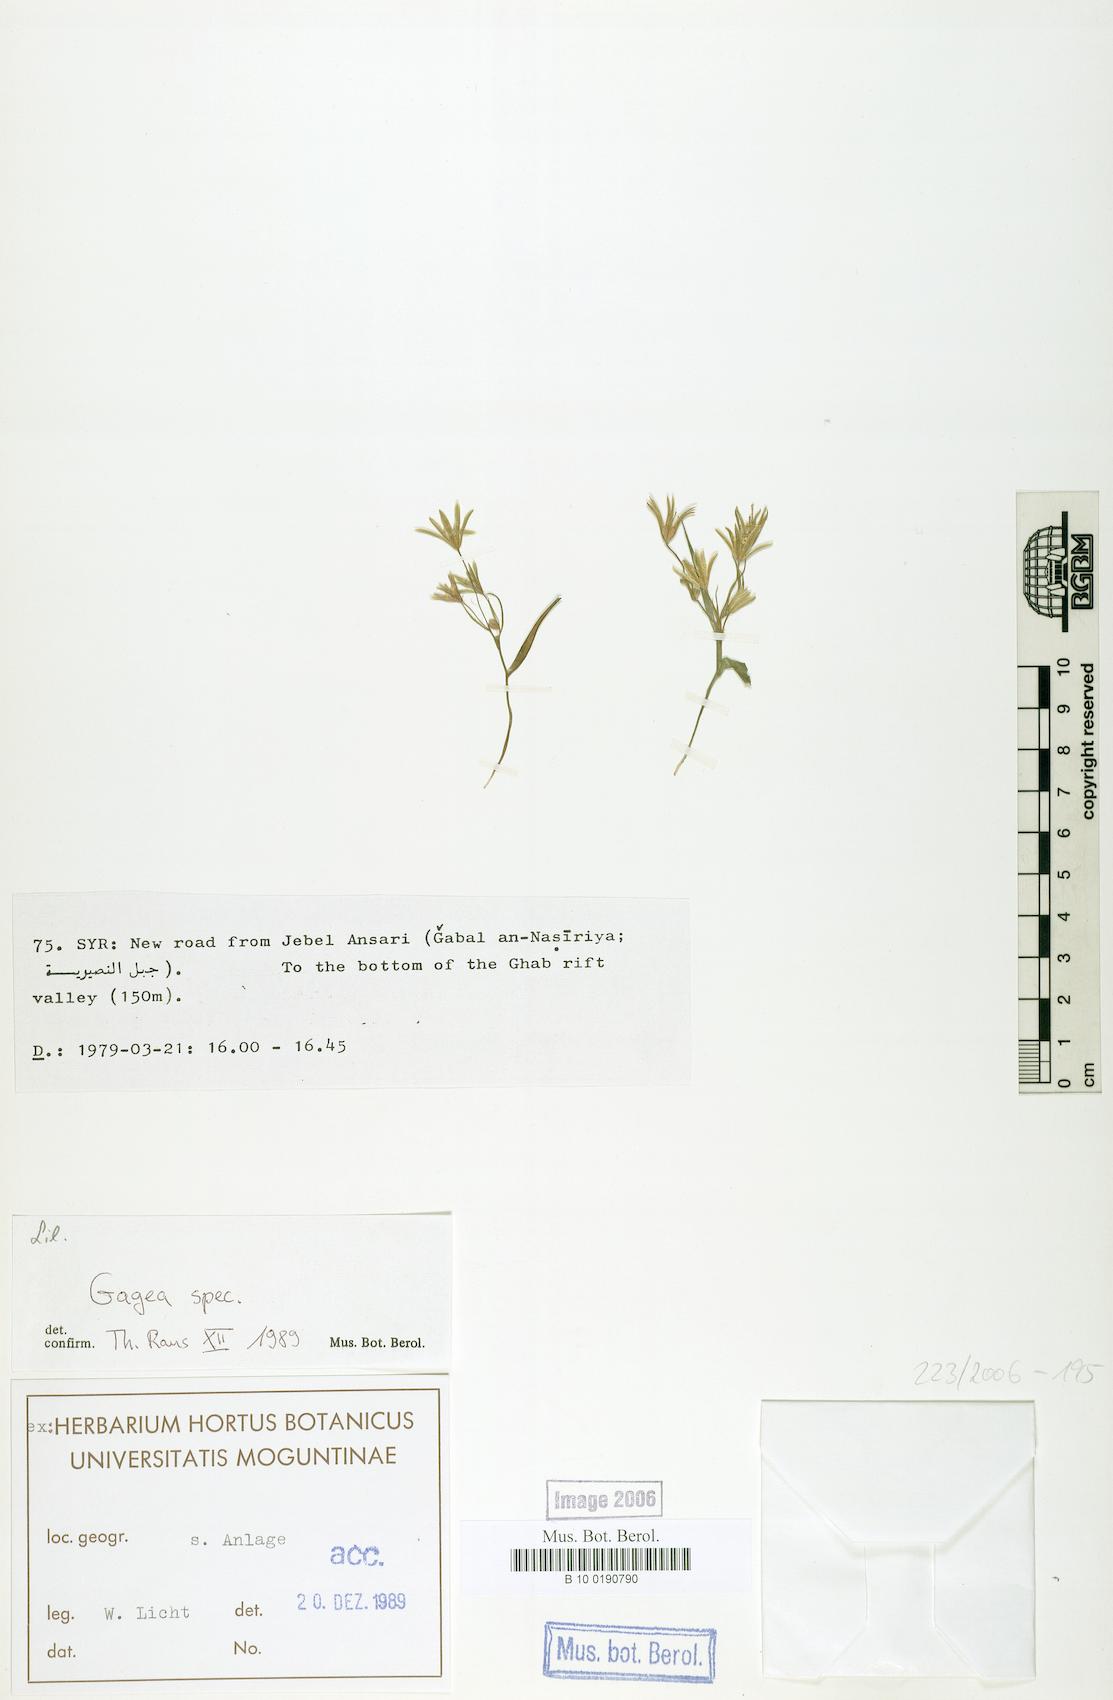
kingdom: Plantae
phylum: Tracheophyta
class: Liliopsida
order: Liliales
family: Liliaceae
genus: Gagea
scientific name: Gagea
